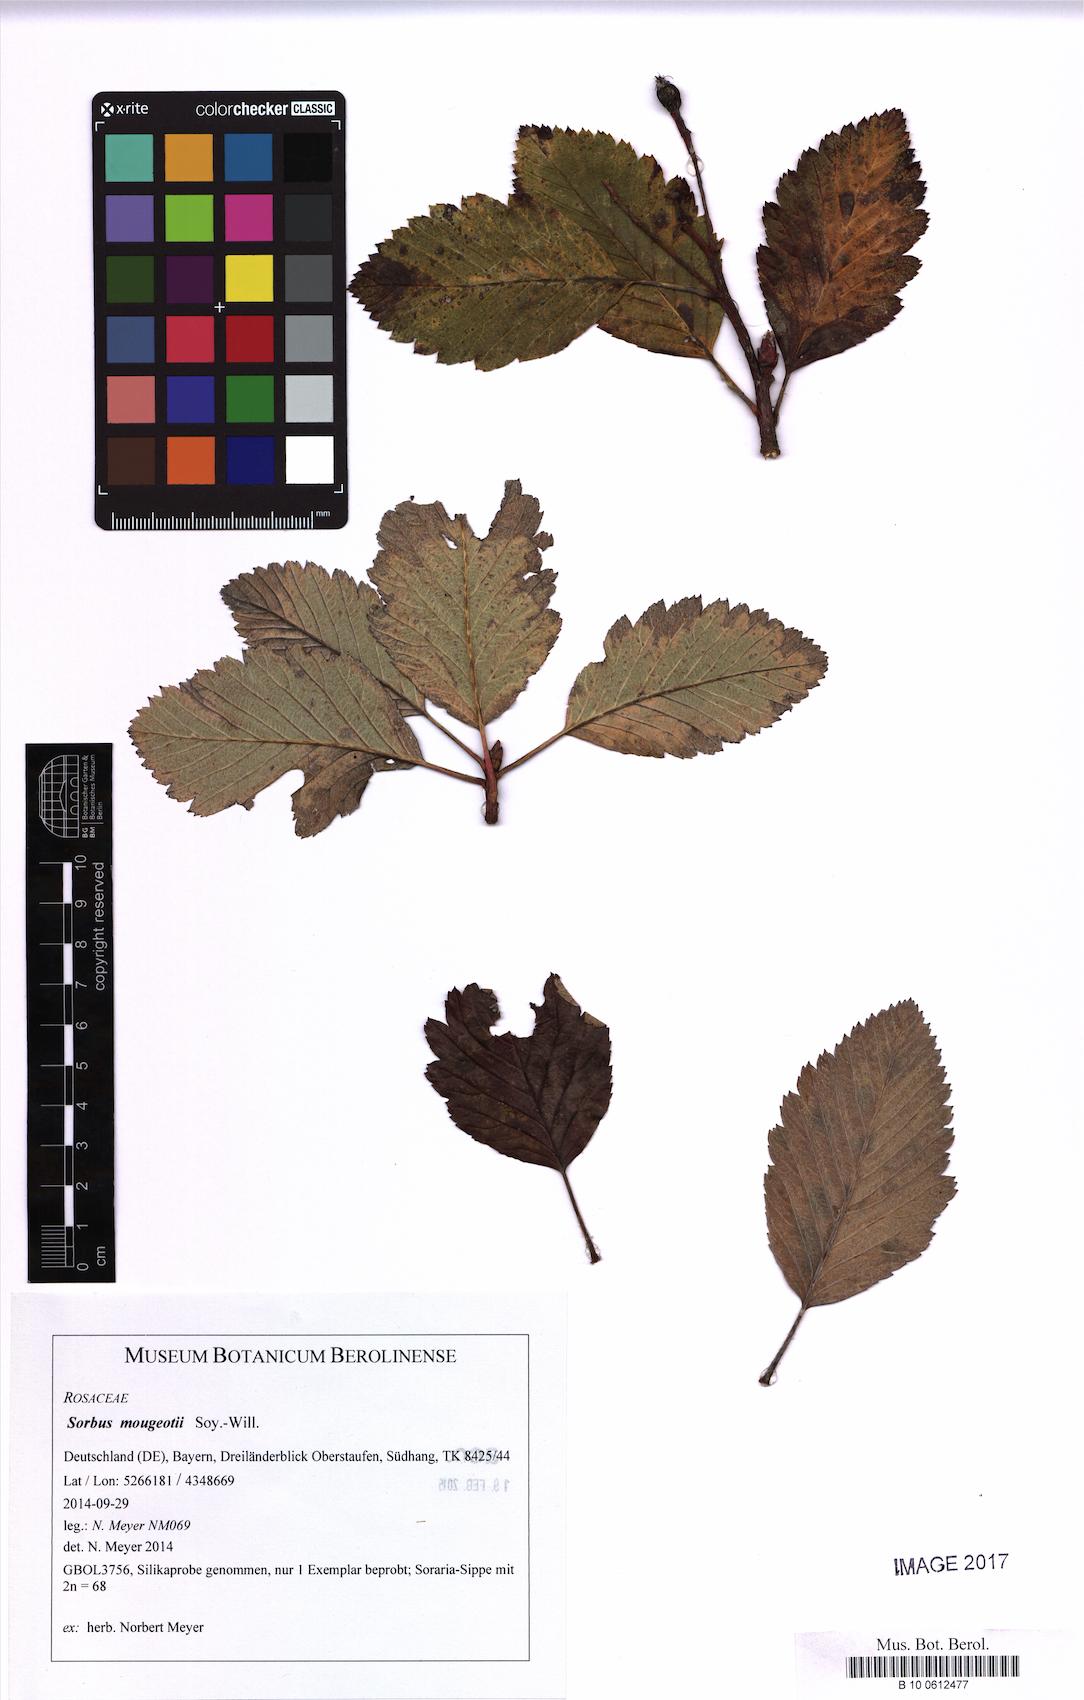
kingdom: Plantae
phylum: Tracheophyta
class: Magnoliopsida
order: Rosales
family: Rosaceae
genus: Hedlundia
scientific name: Hedlundia mougeotii
